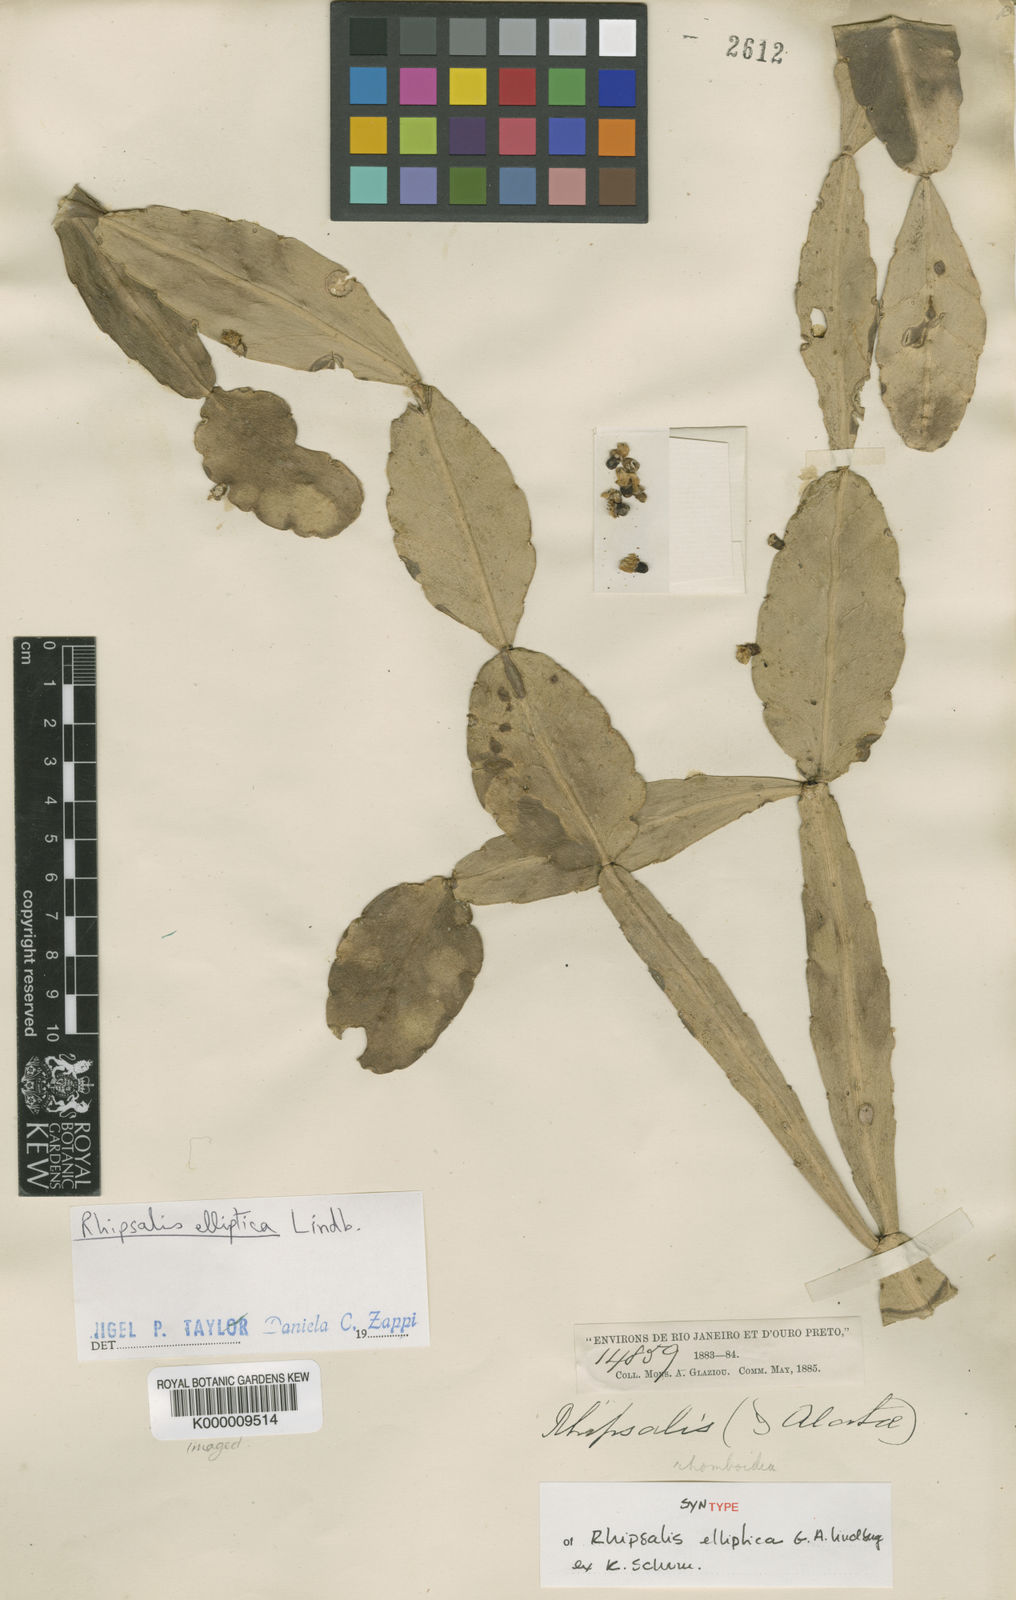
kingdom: Plantae
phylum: Tracheophyta
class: Magnoliopsida
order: Caryophyllales
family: Cactaceae
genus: Rhipsalis
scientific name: Rhipsalis elliptica
